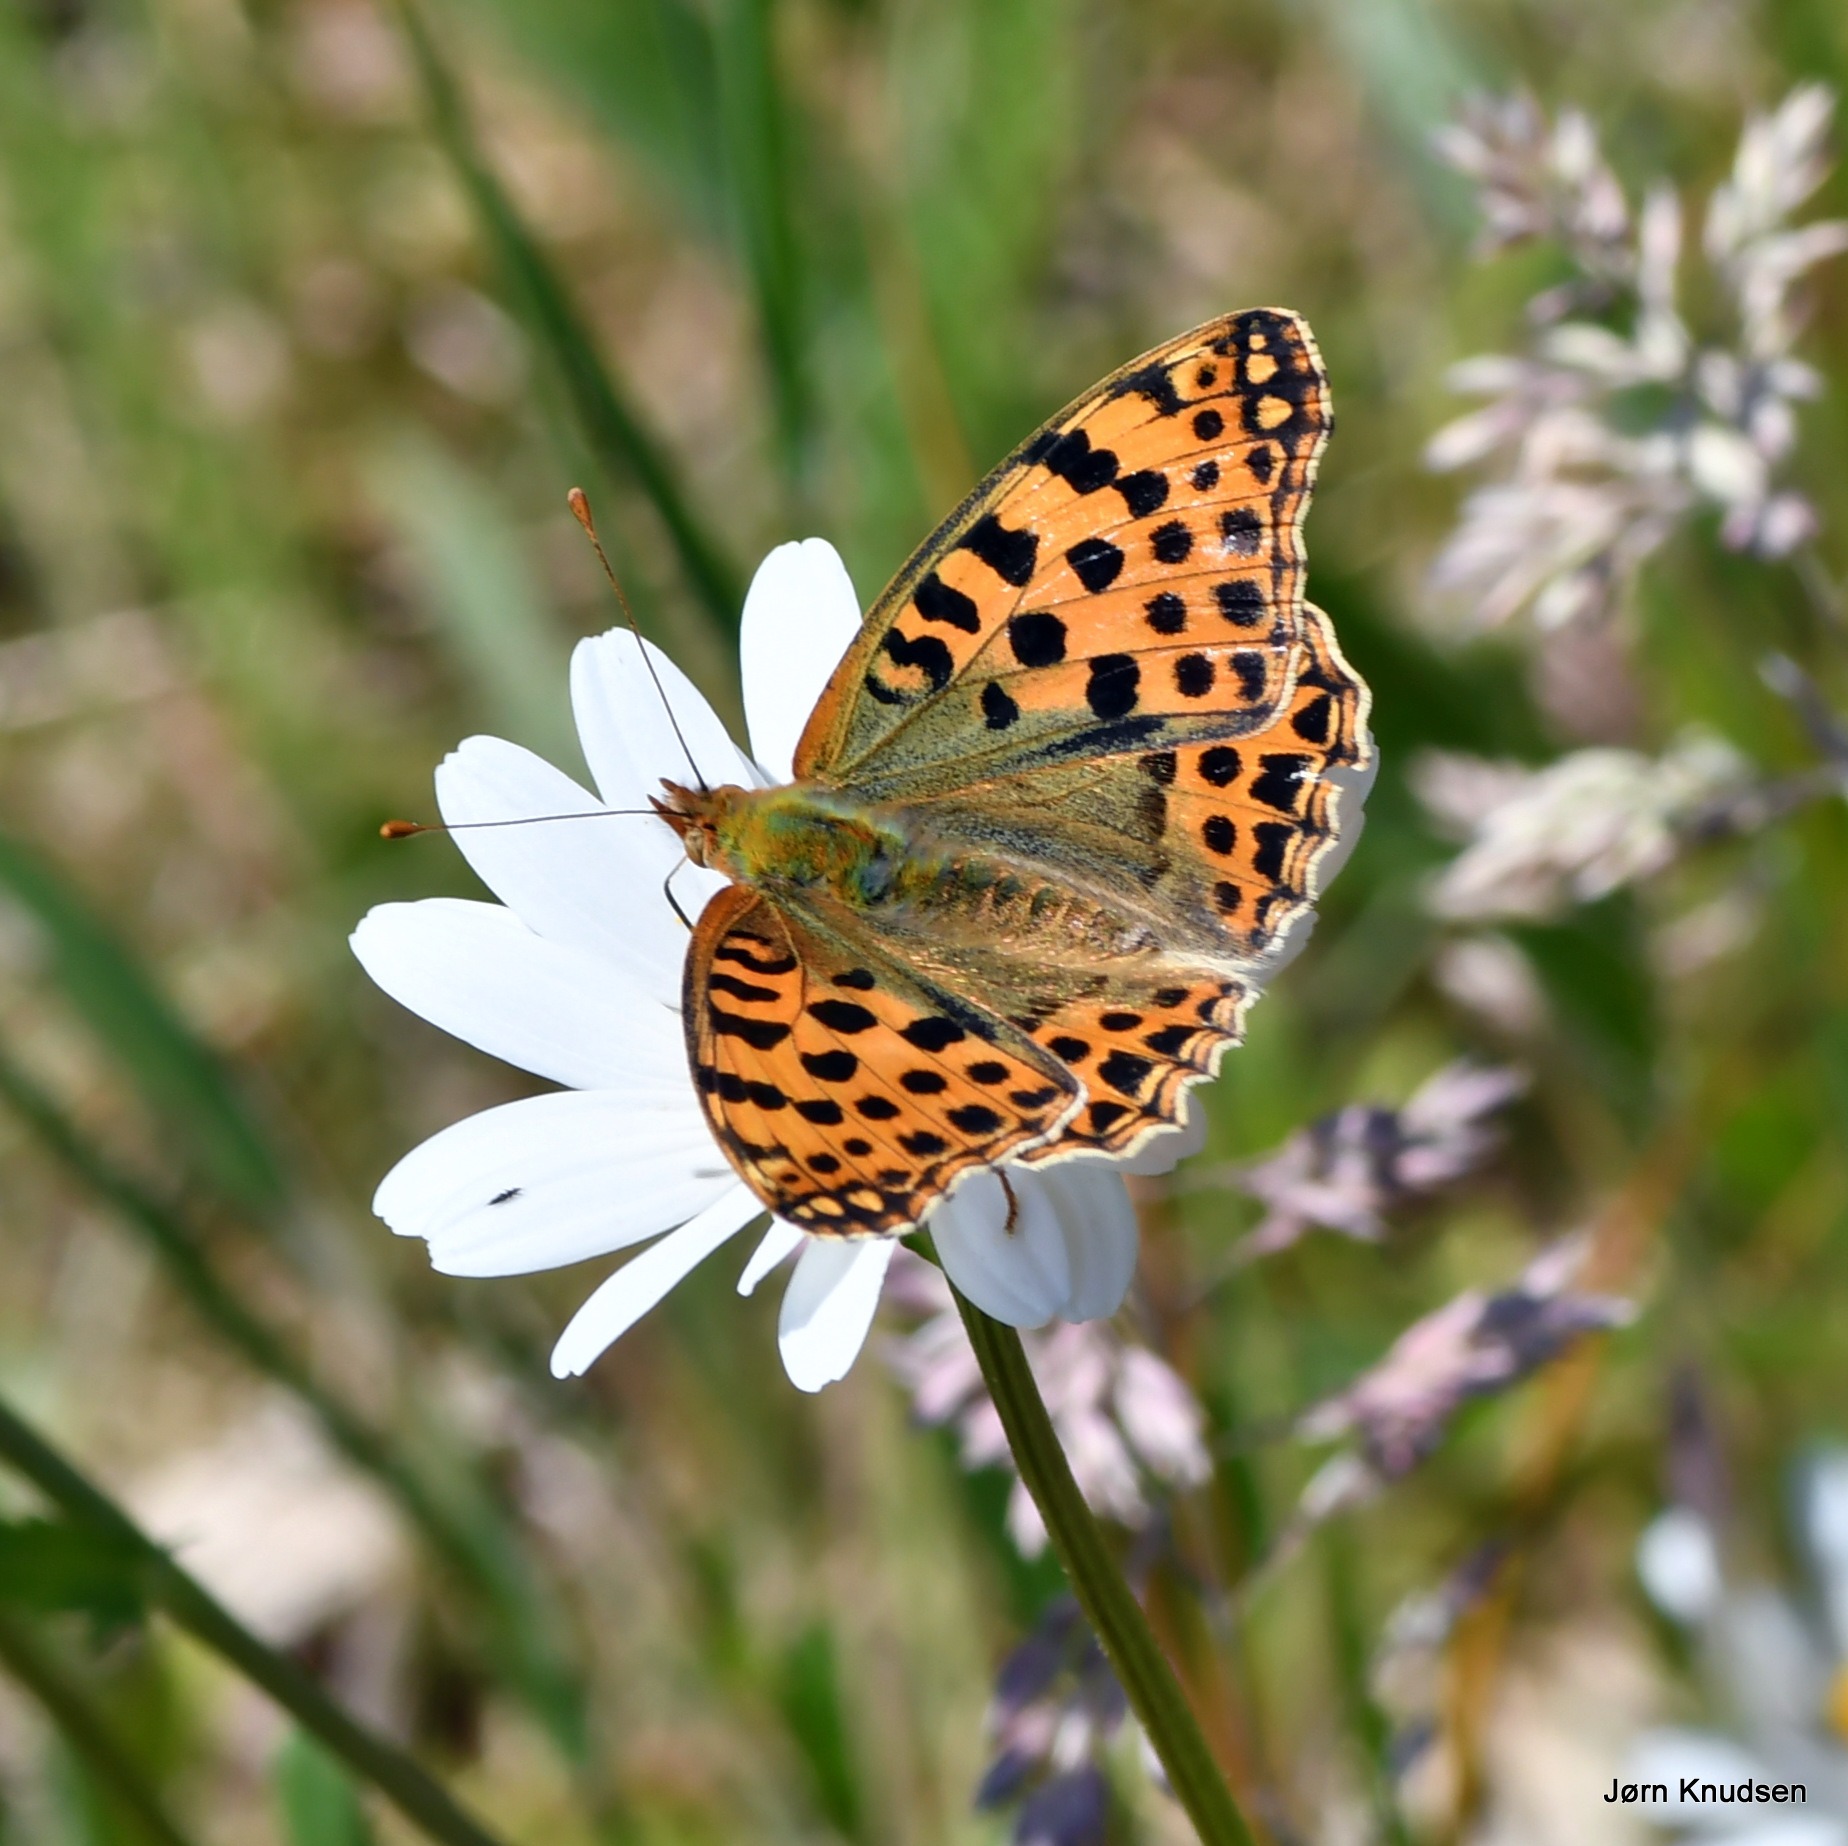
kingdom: Animalia
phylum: Arthropoda
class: Insecta
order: Lepidoptera
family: Nymphalidae
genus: Issoria
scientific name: Issoria lathonia
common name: Storplettet perlemorsommerfugl
